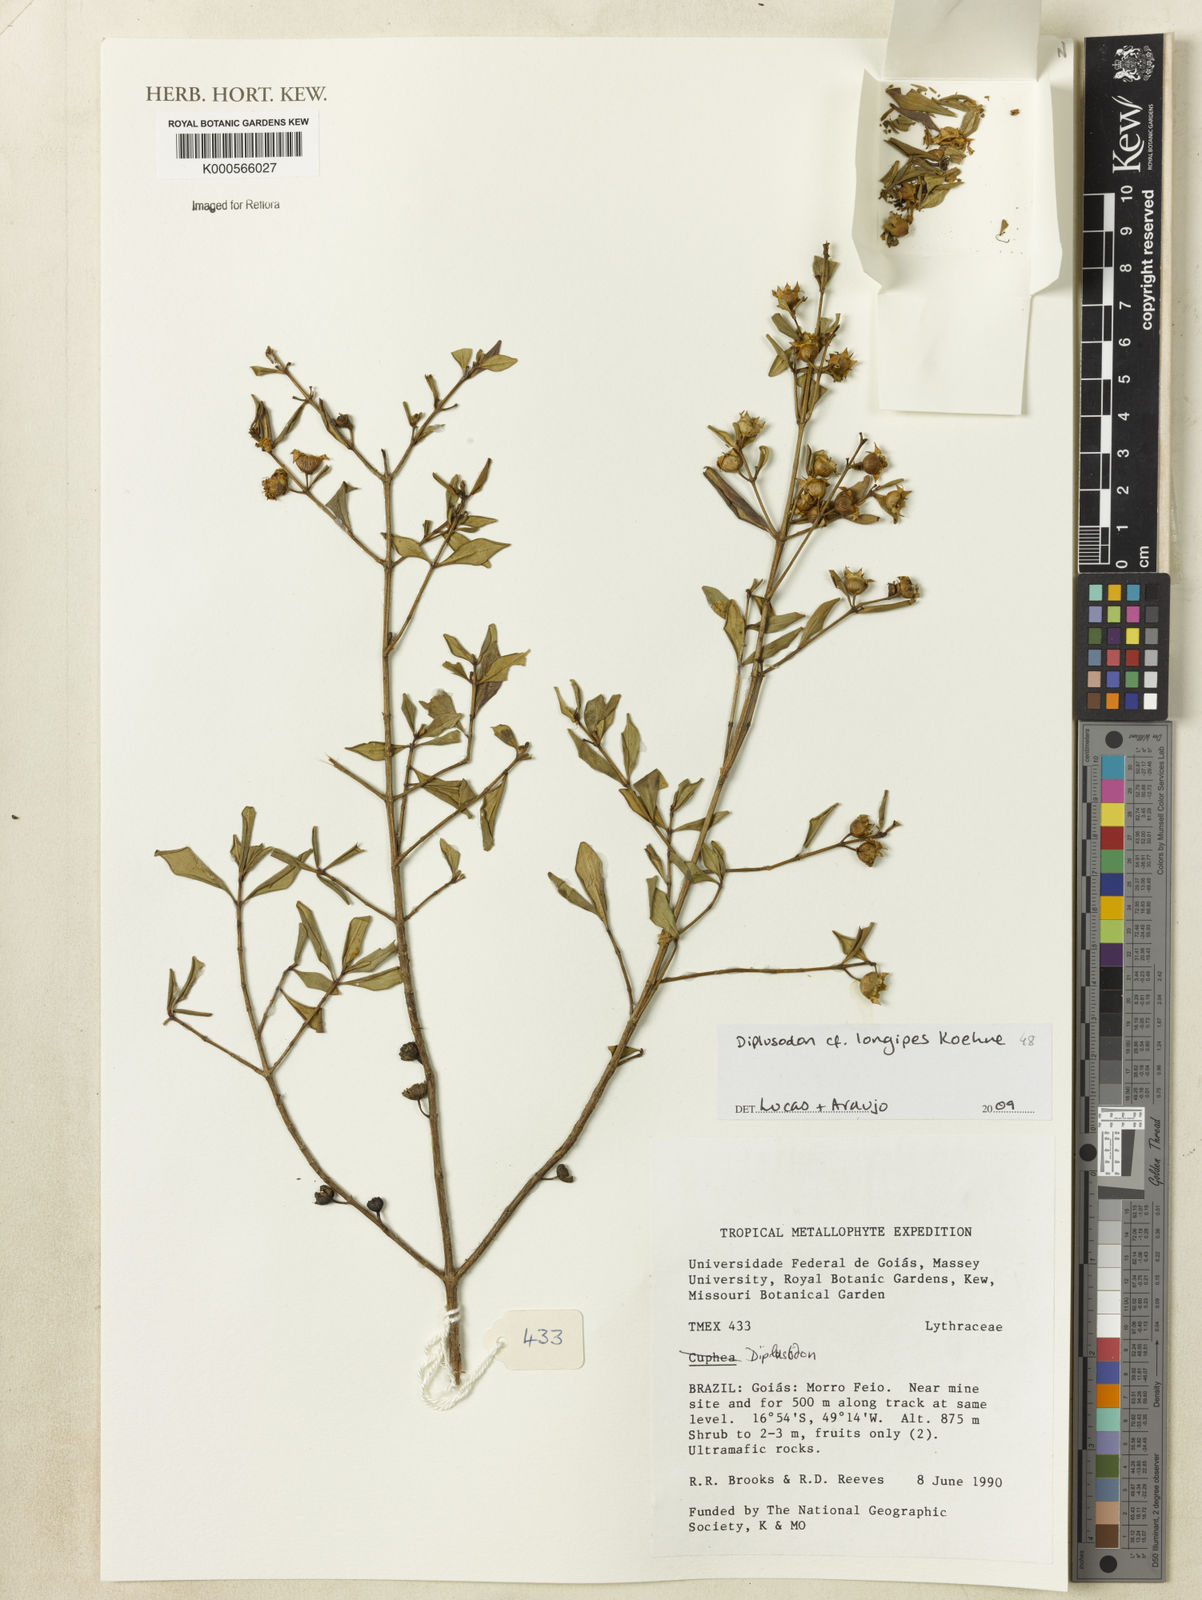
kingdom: Plantae
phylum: Tracheophyta
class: Magnoliopsida
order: Myrtales
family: Lythraceae
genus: Diplusodon
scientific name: Diplusodon longipes
